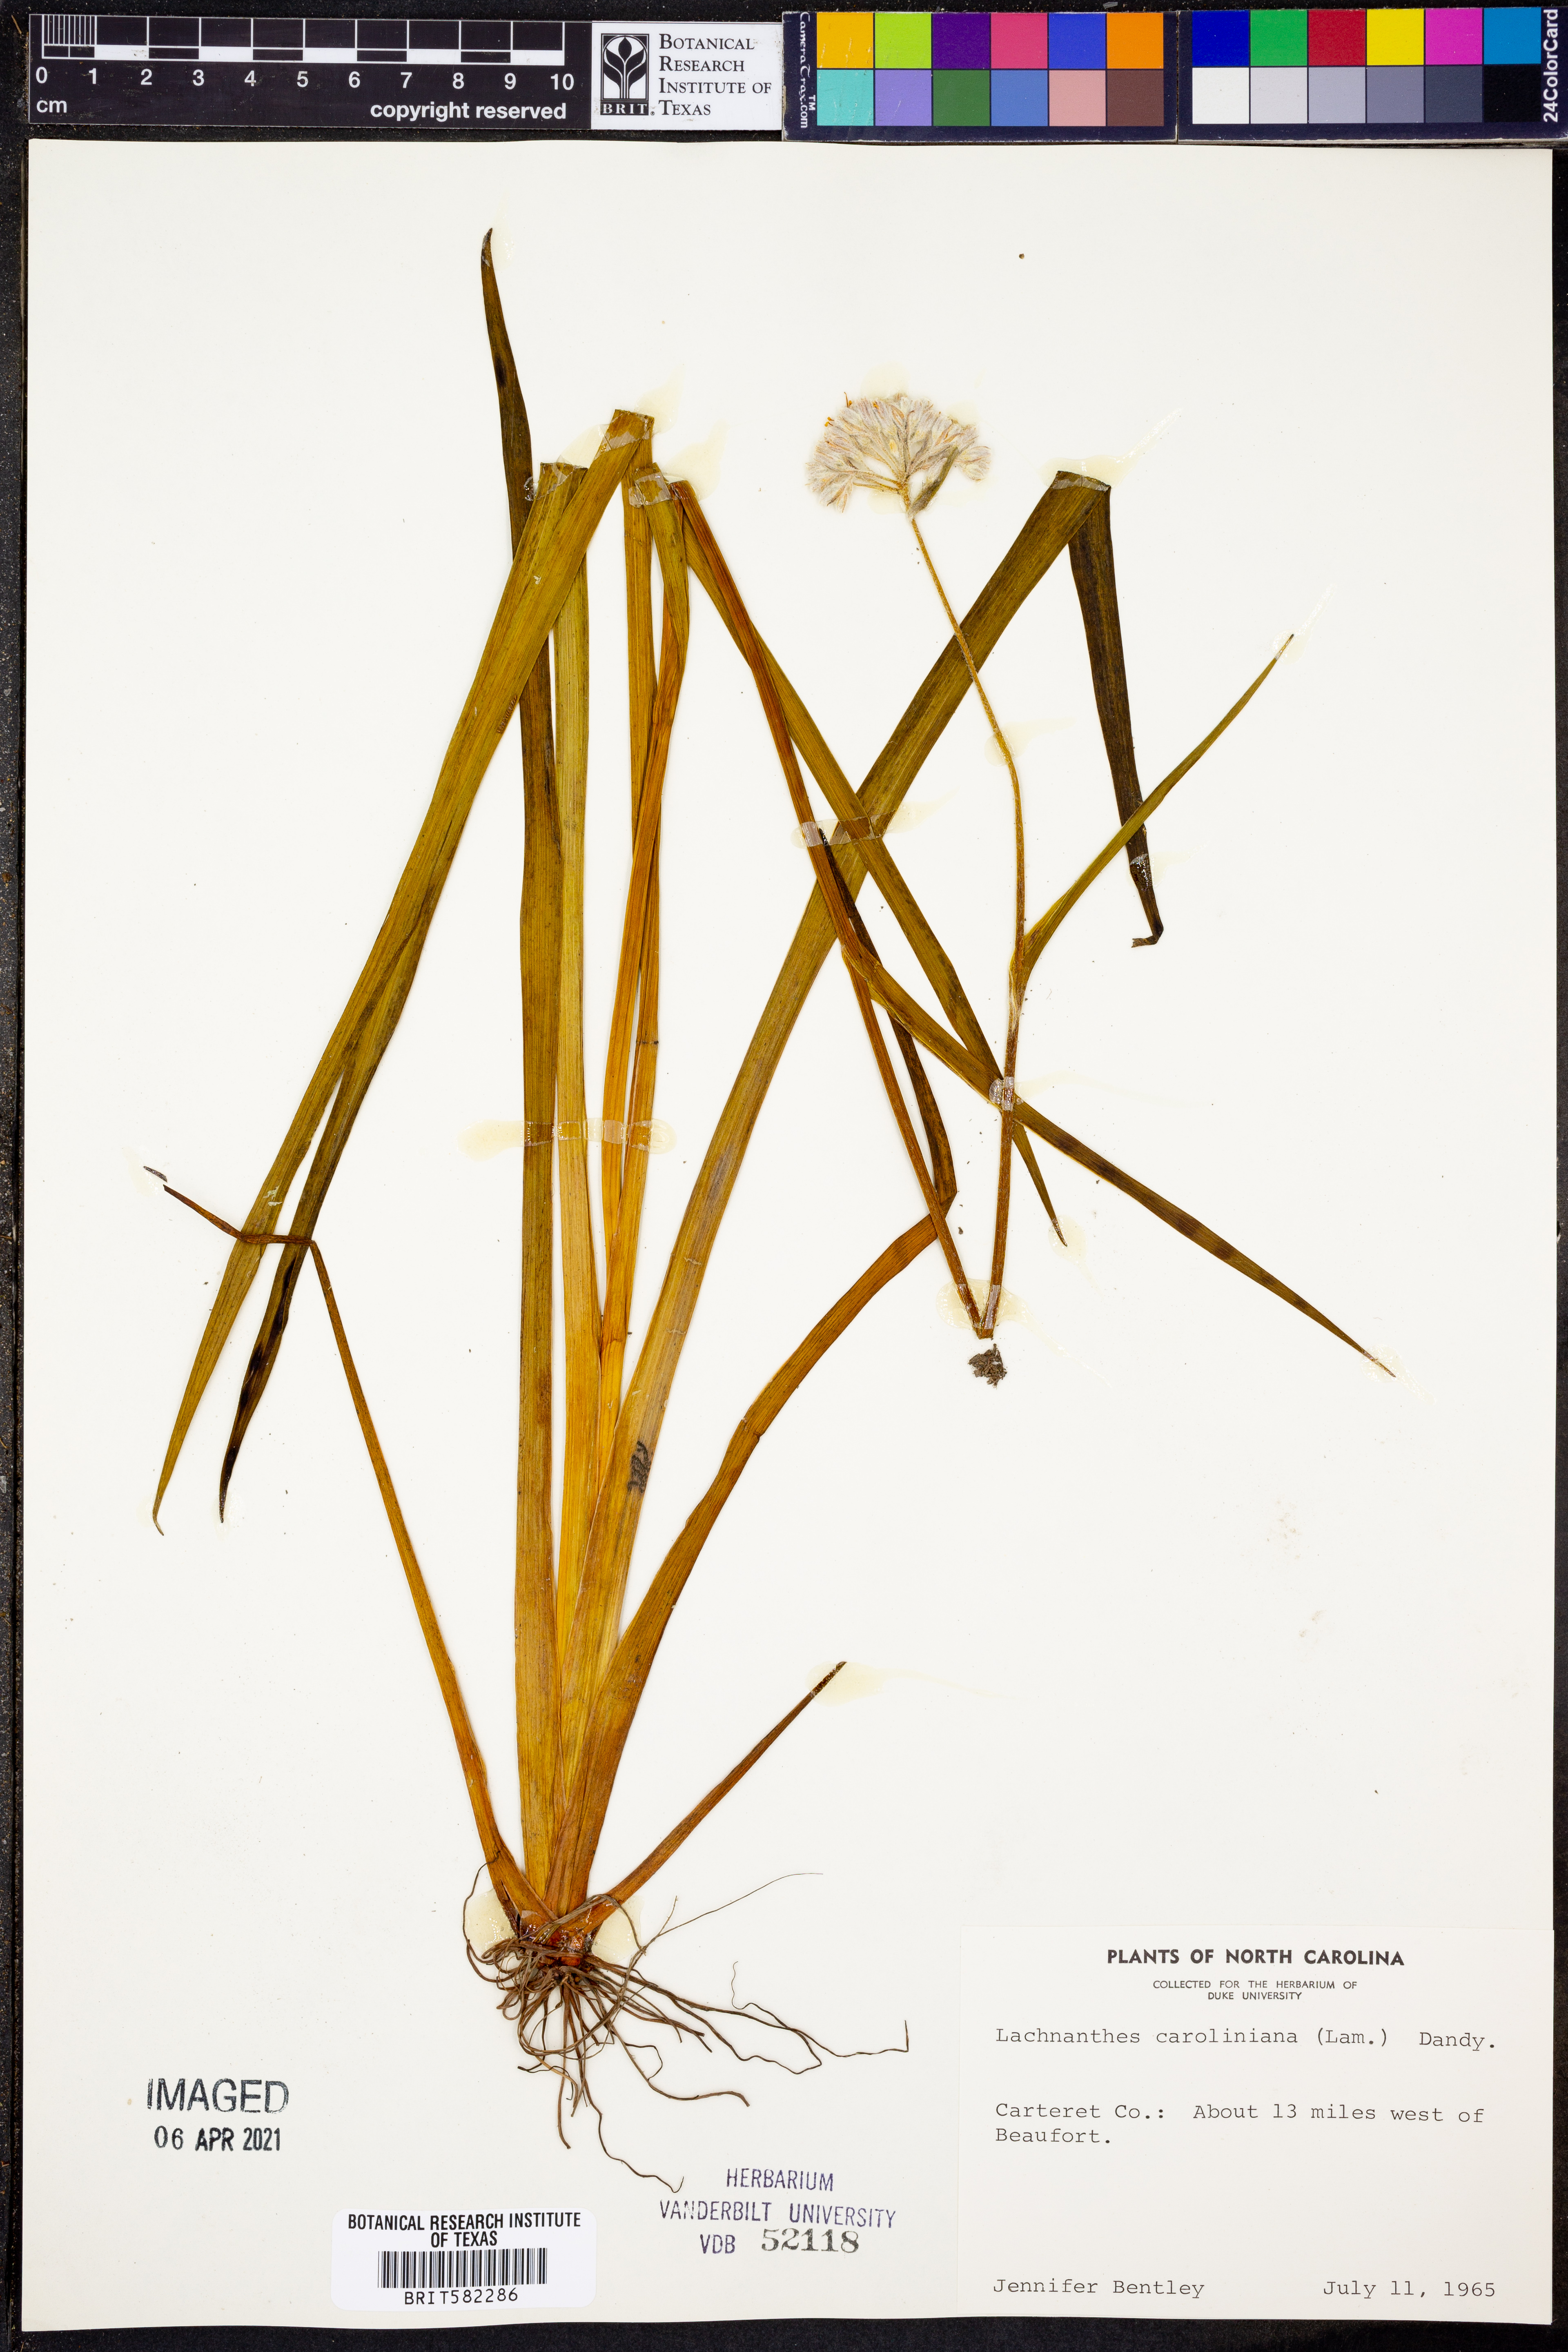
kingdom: Plantae
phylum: Tracheophyta
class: Liliopsida
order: Commelinales
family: Haemodoraceae
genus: Lachnanthes
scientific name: Lachnanthes caroliniana
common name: Carolina redroot
